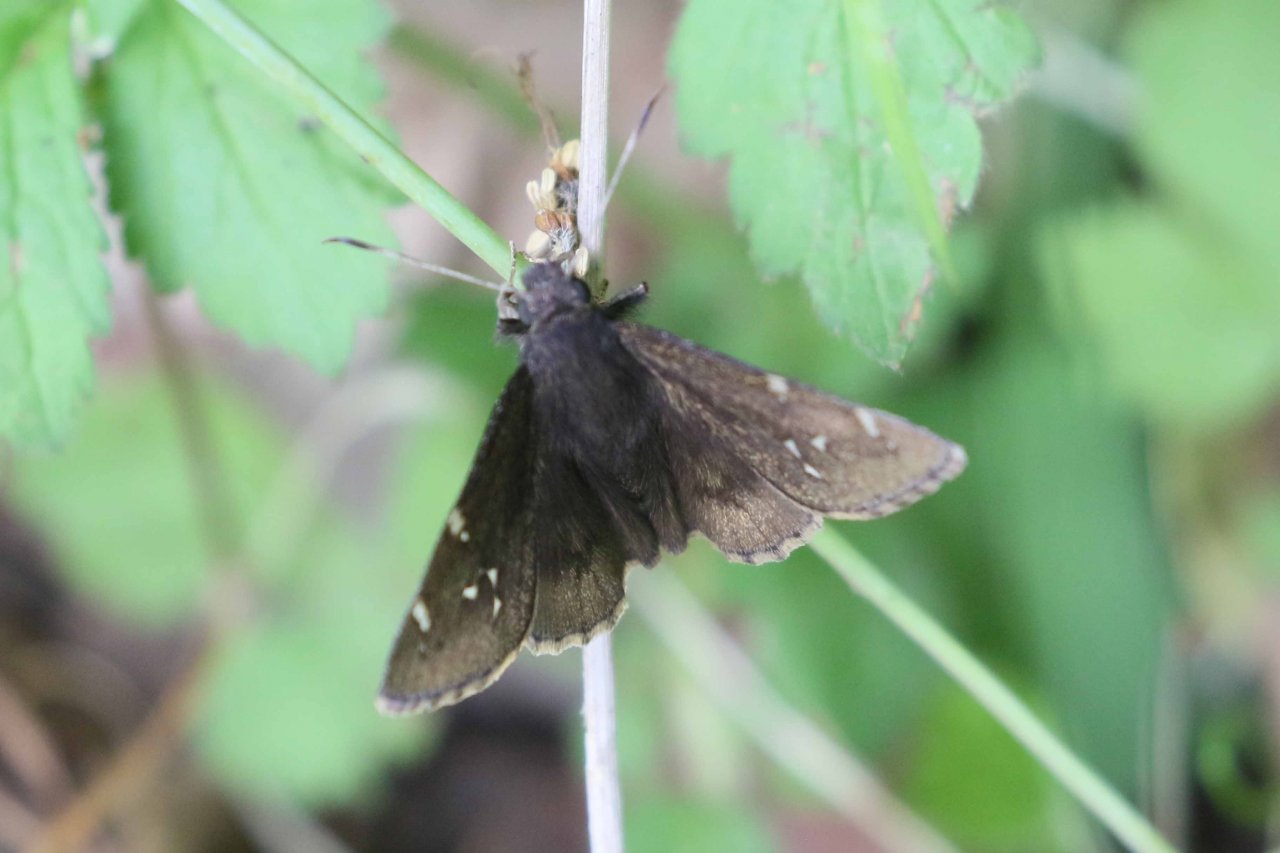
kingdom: Animalia
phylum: Arthropoda
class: Insecta
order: Lepidoptera
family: Hesperiidae
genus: Autochton
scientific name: Autochton
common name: Northern Cloudywing
